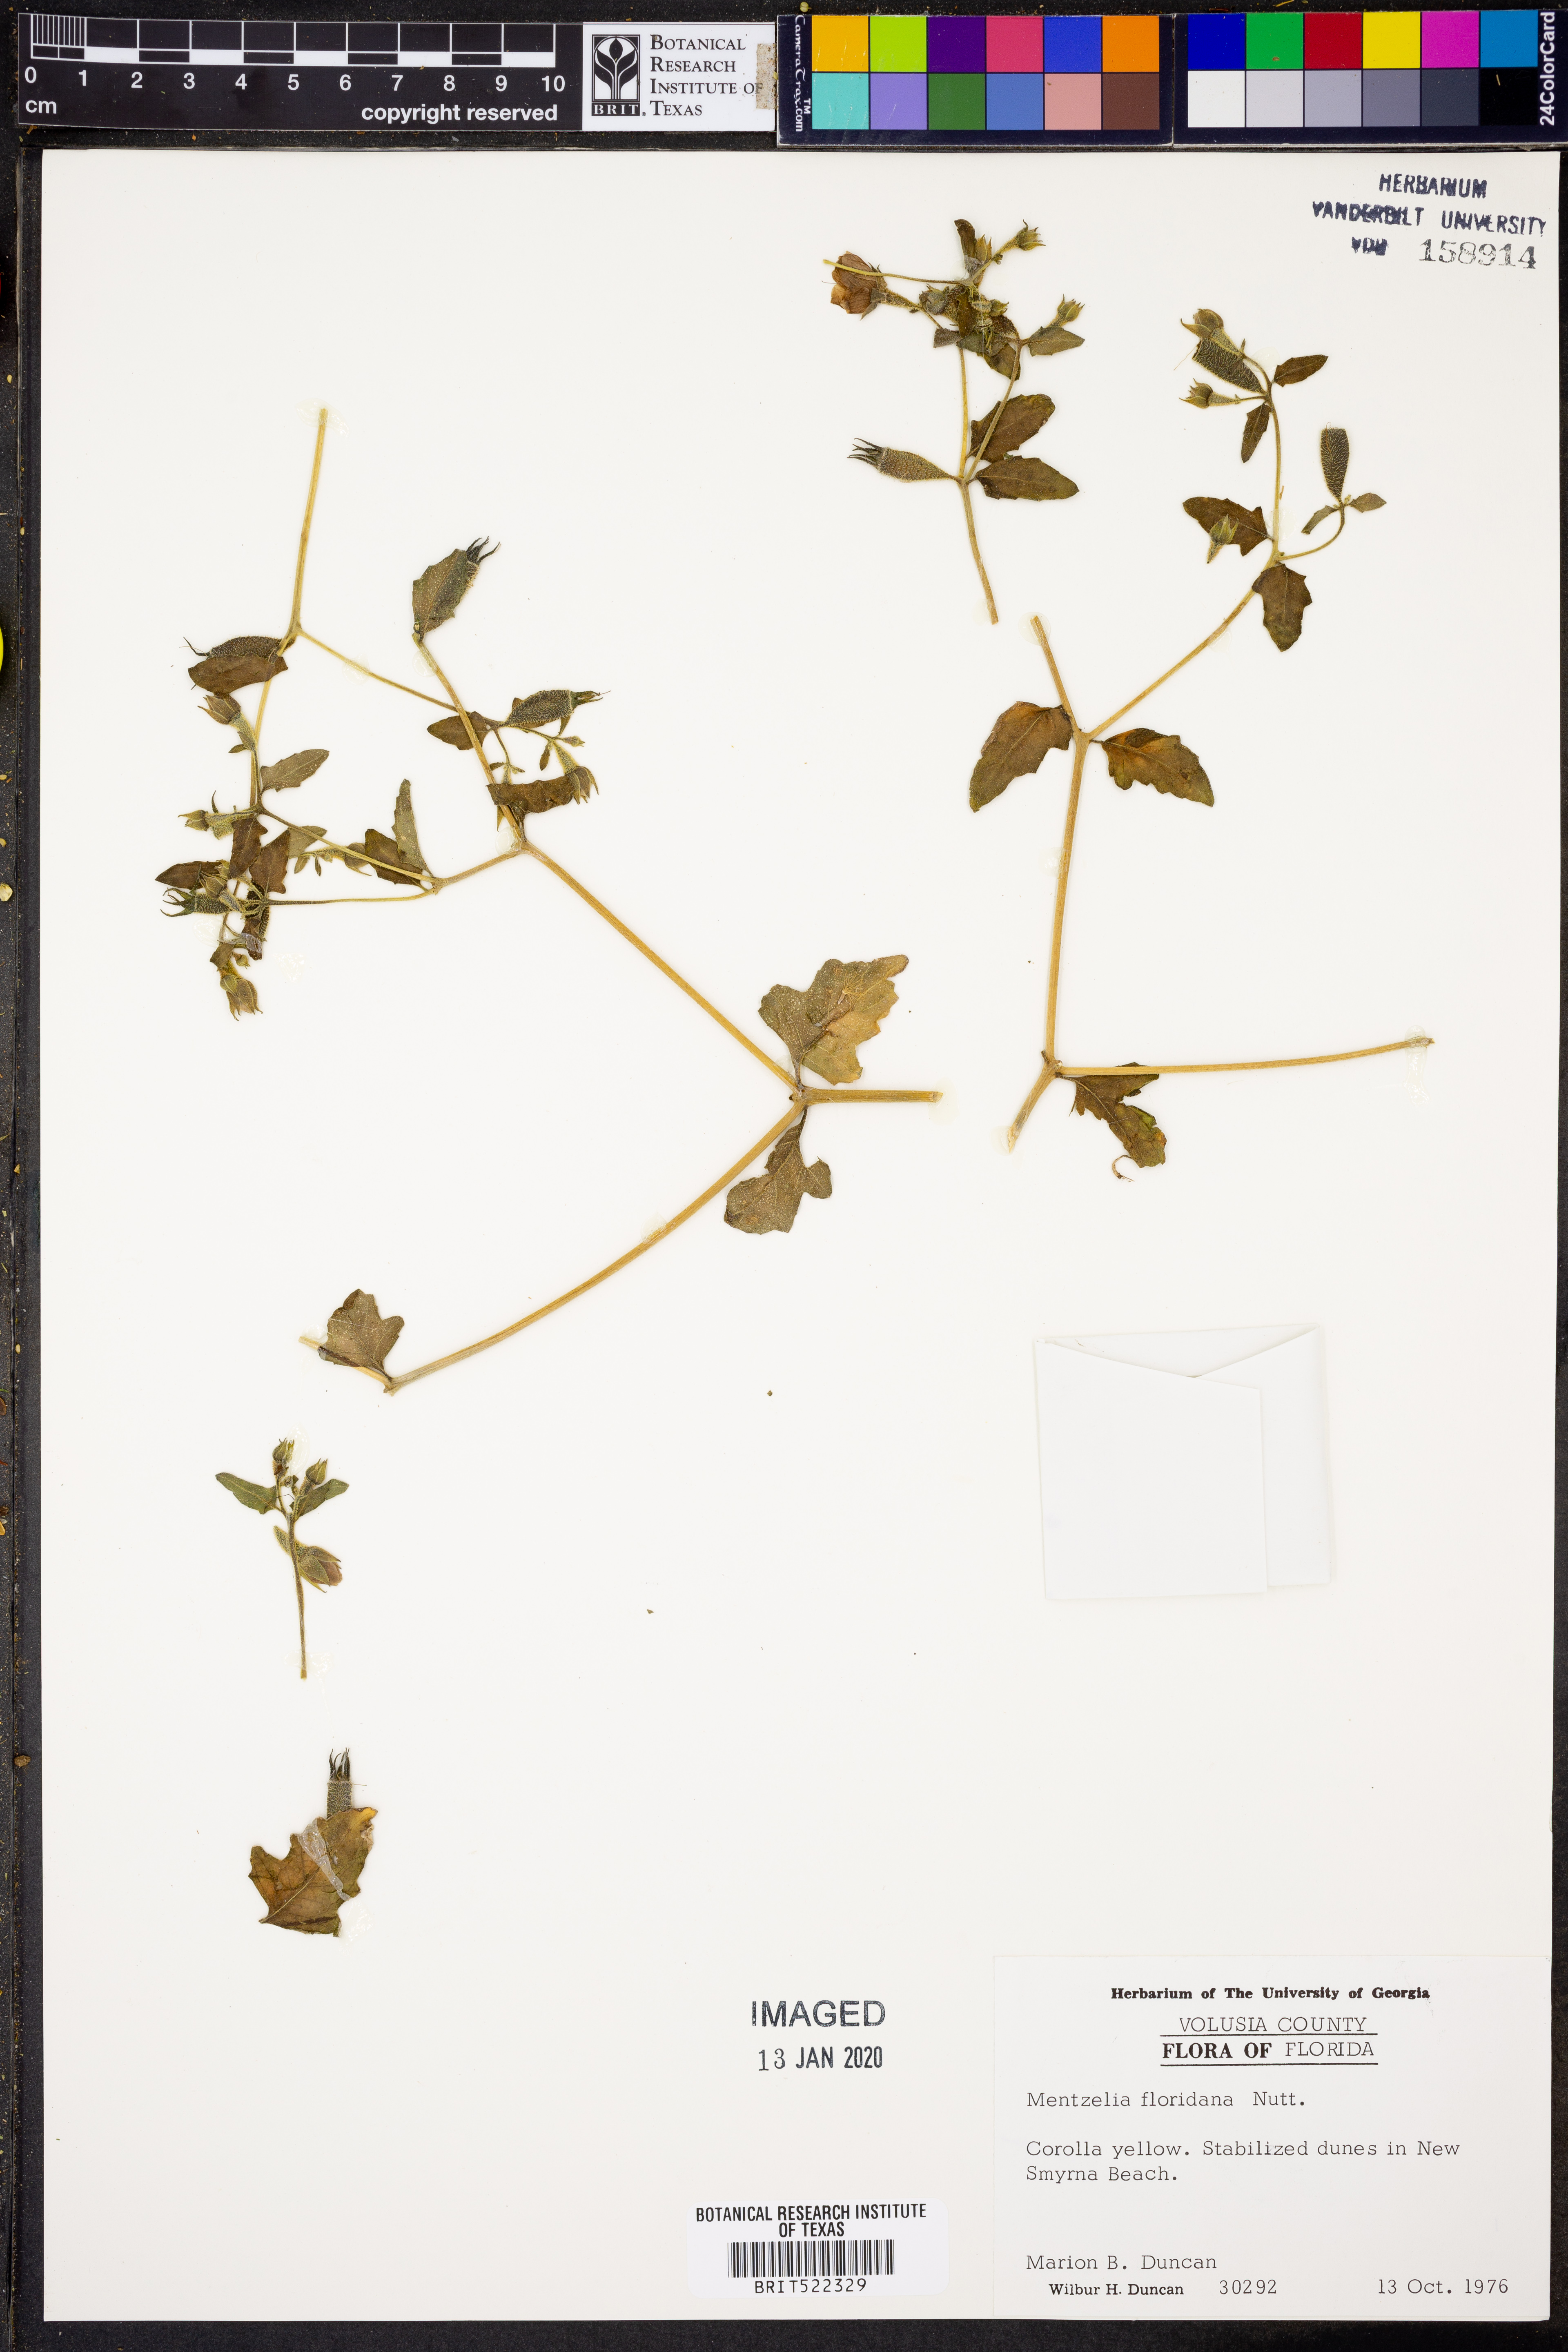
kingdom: Plantae
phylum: Tracheophyta
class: Magnoliopsida
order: Cornales
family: Loasaceae
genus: Mentzelia
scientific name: Mentzelia floridana
